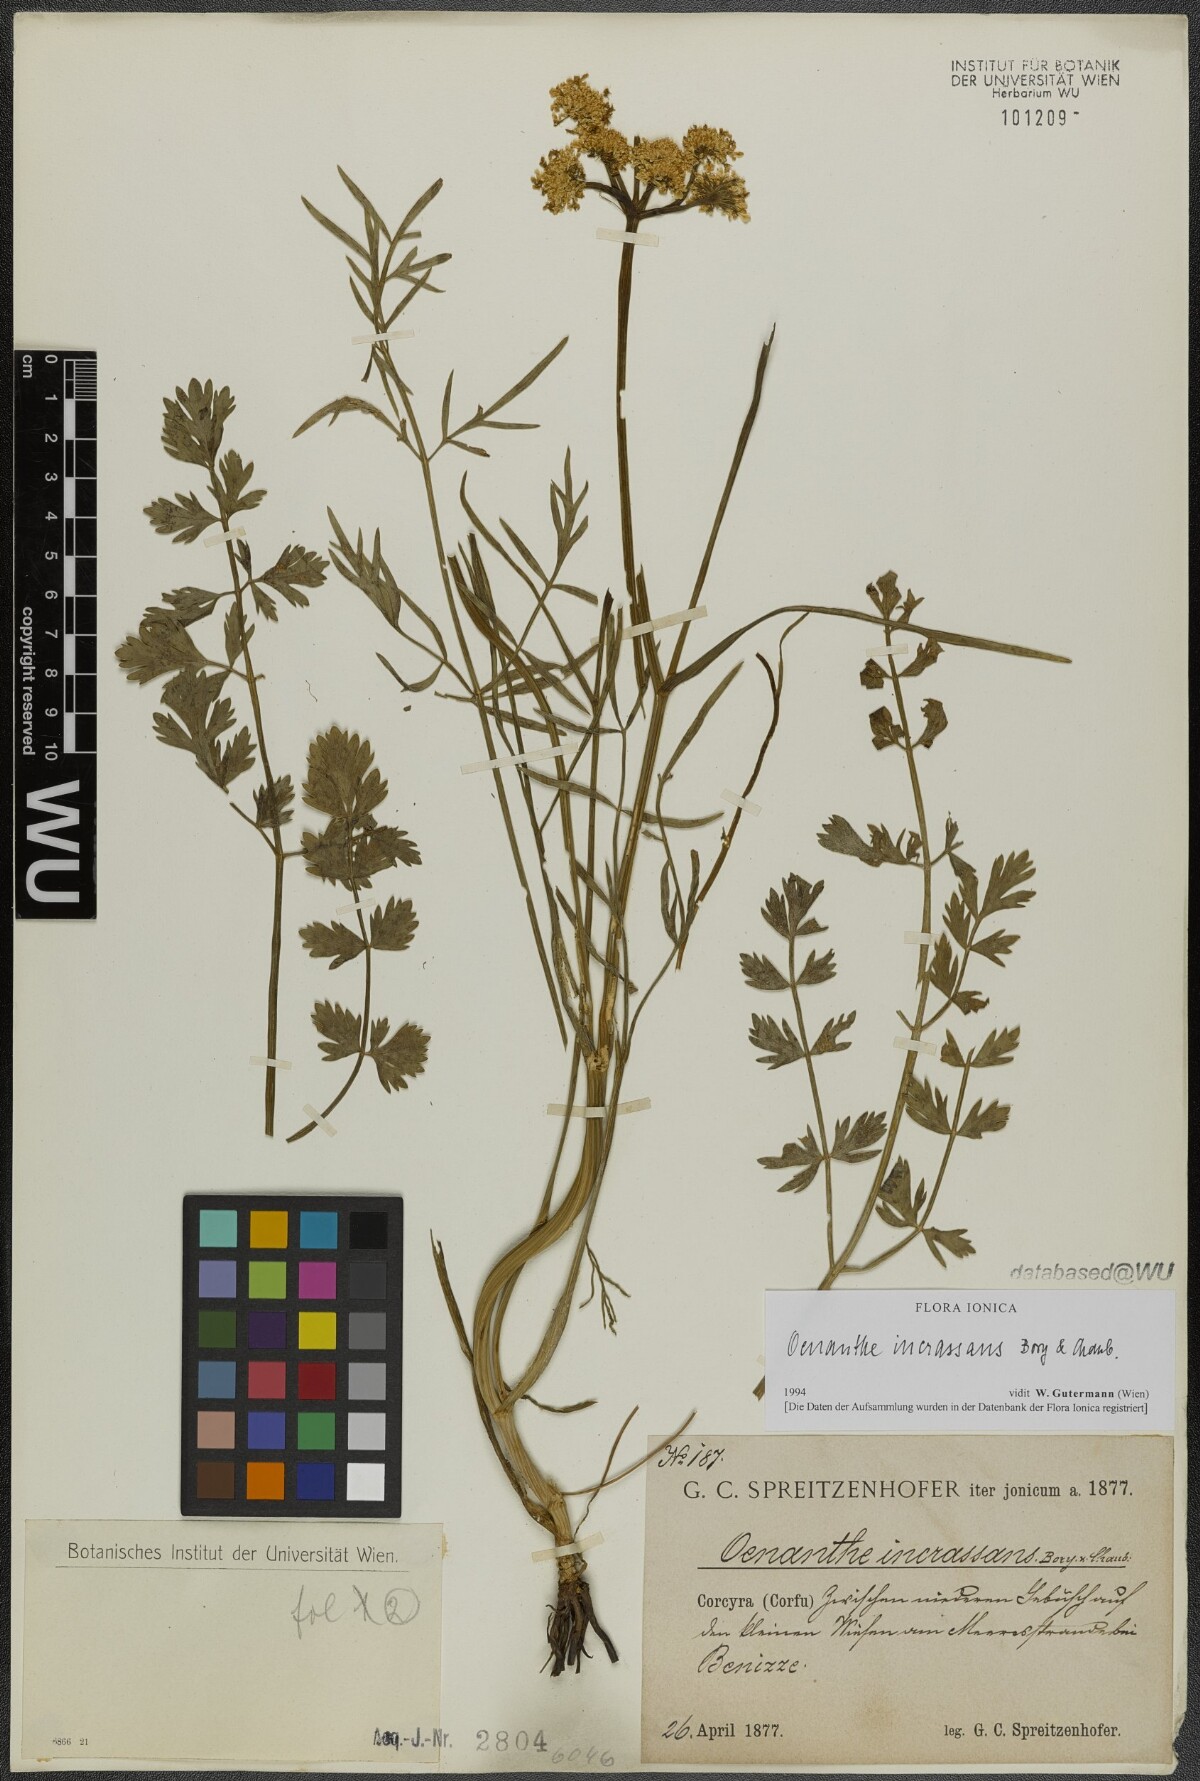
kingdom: Plantae
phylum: Tracheophyta
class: Magnoliopsida
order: Apiales
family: Apiaceae
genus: Oenanthe
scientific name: Oenanthe pimpinelloides
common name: Corky-fruited water-dropwort
